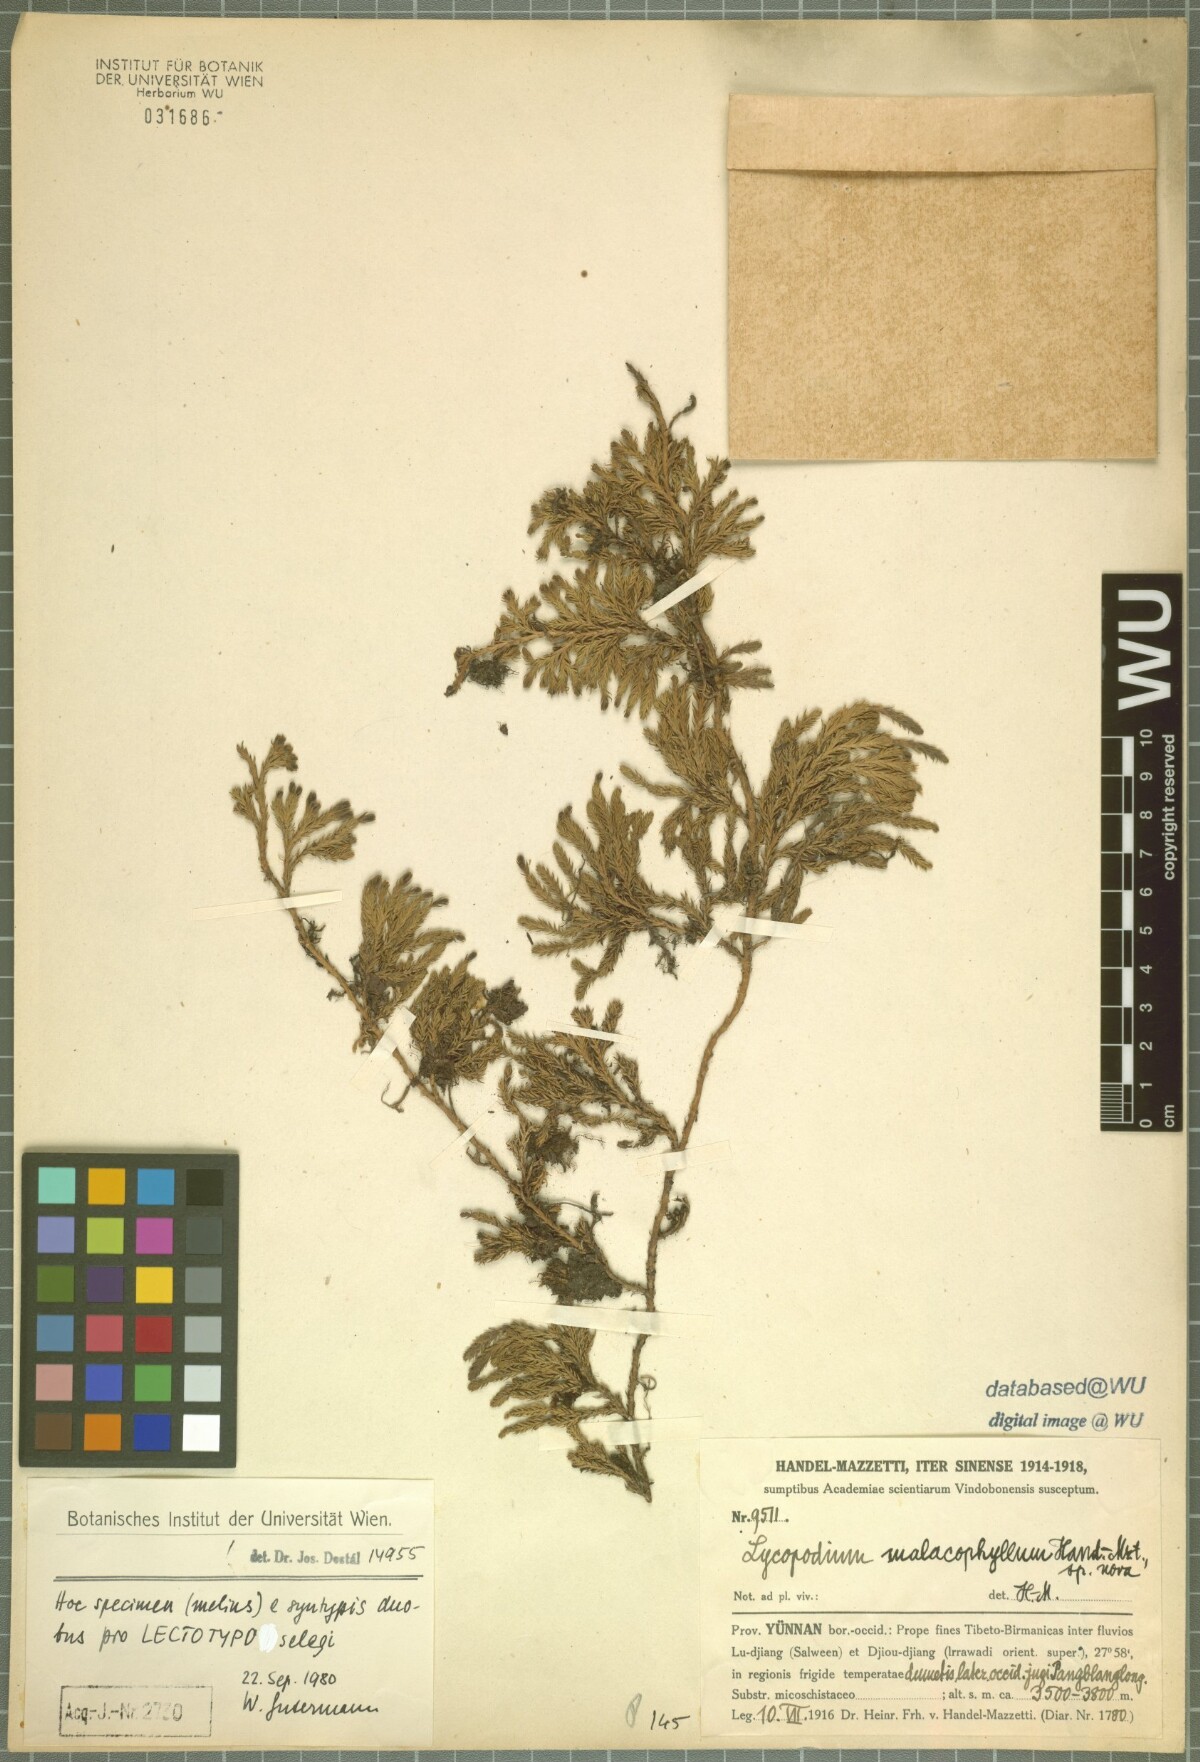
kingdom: Plantae
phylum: Tracheophyta
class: Lycopodiopsida
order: Lycopodiales
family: Lycopodiaceae
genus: Diphasiastrum
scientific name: Diphasiastrum veitchii
